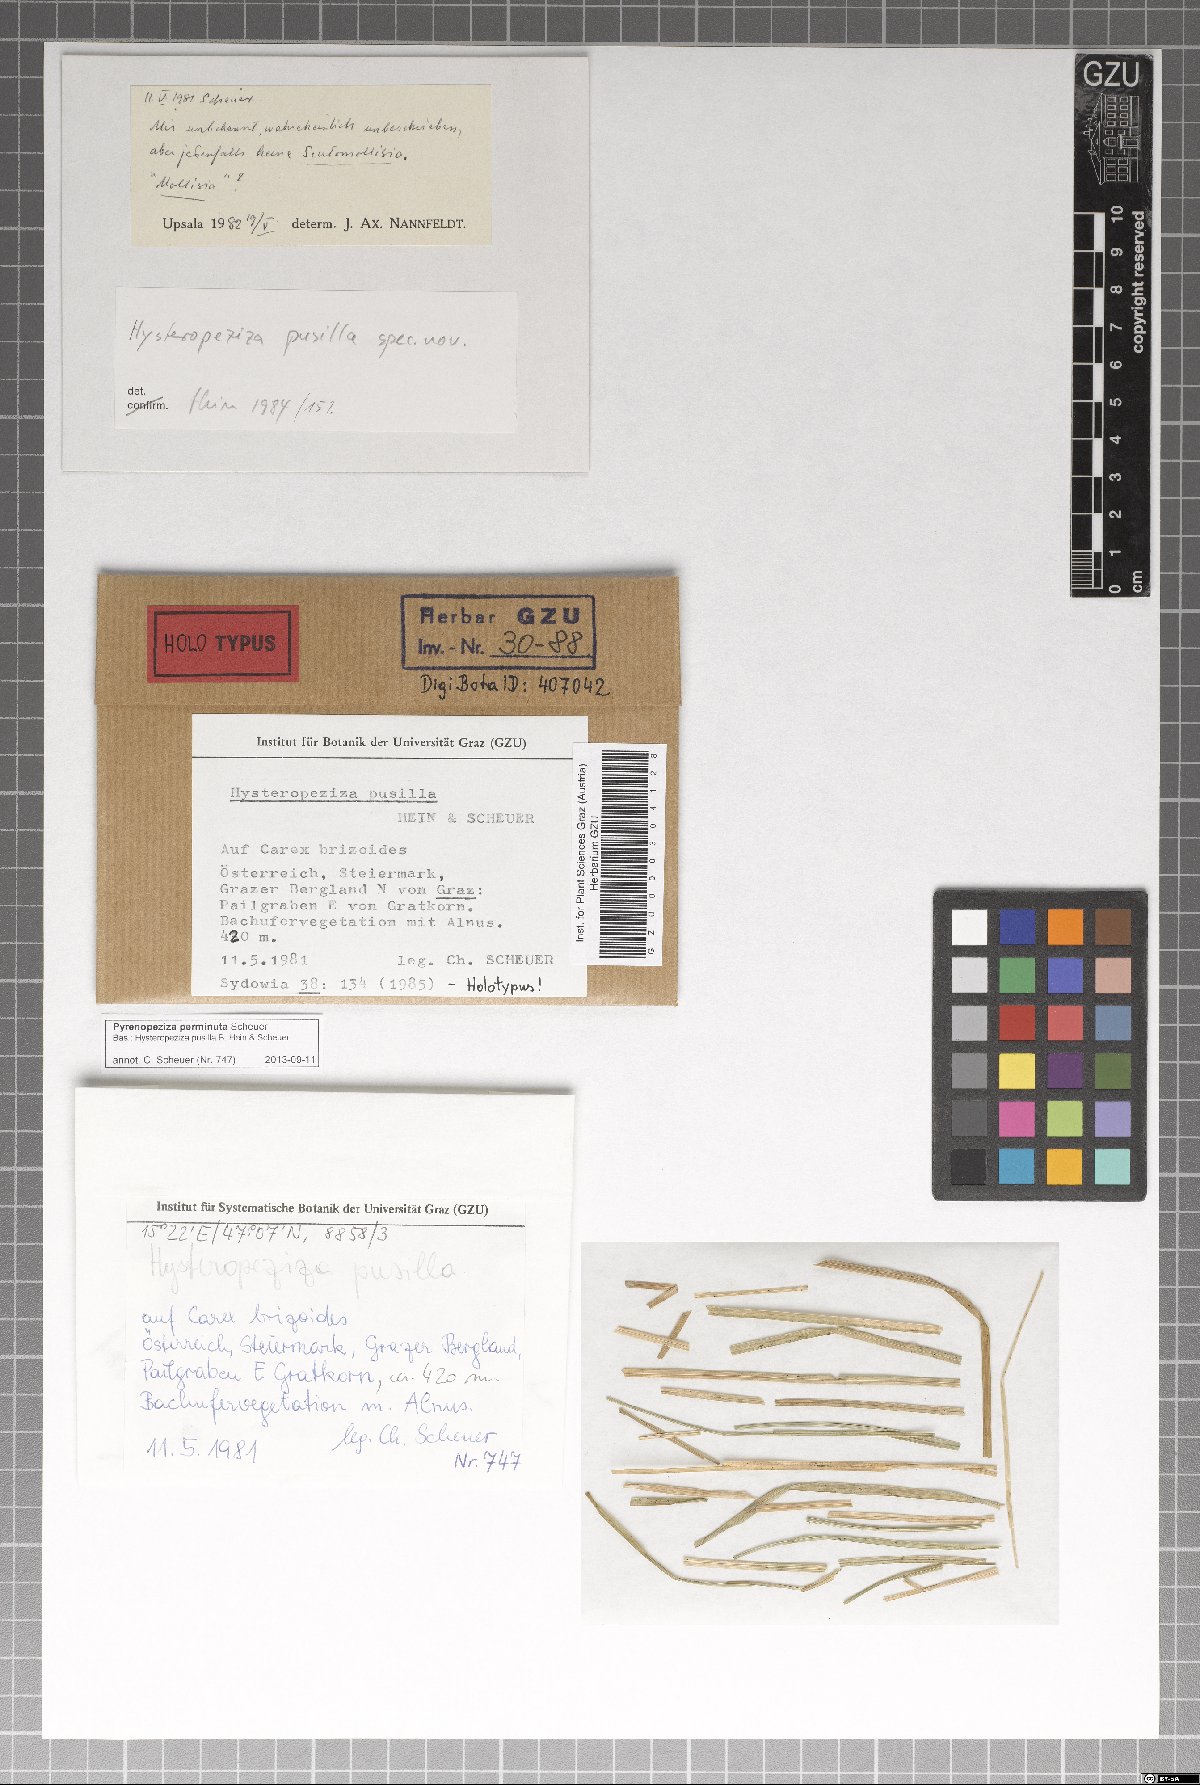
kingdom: Fungi
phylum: Ascomycota
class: Leotiomycetes
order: Helotiales
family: Ploettnerulaceae
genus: Pyrenopeziza
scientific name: Pyrenopeziza perminuta
